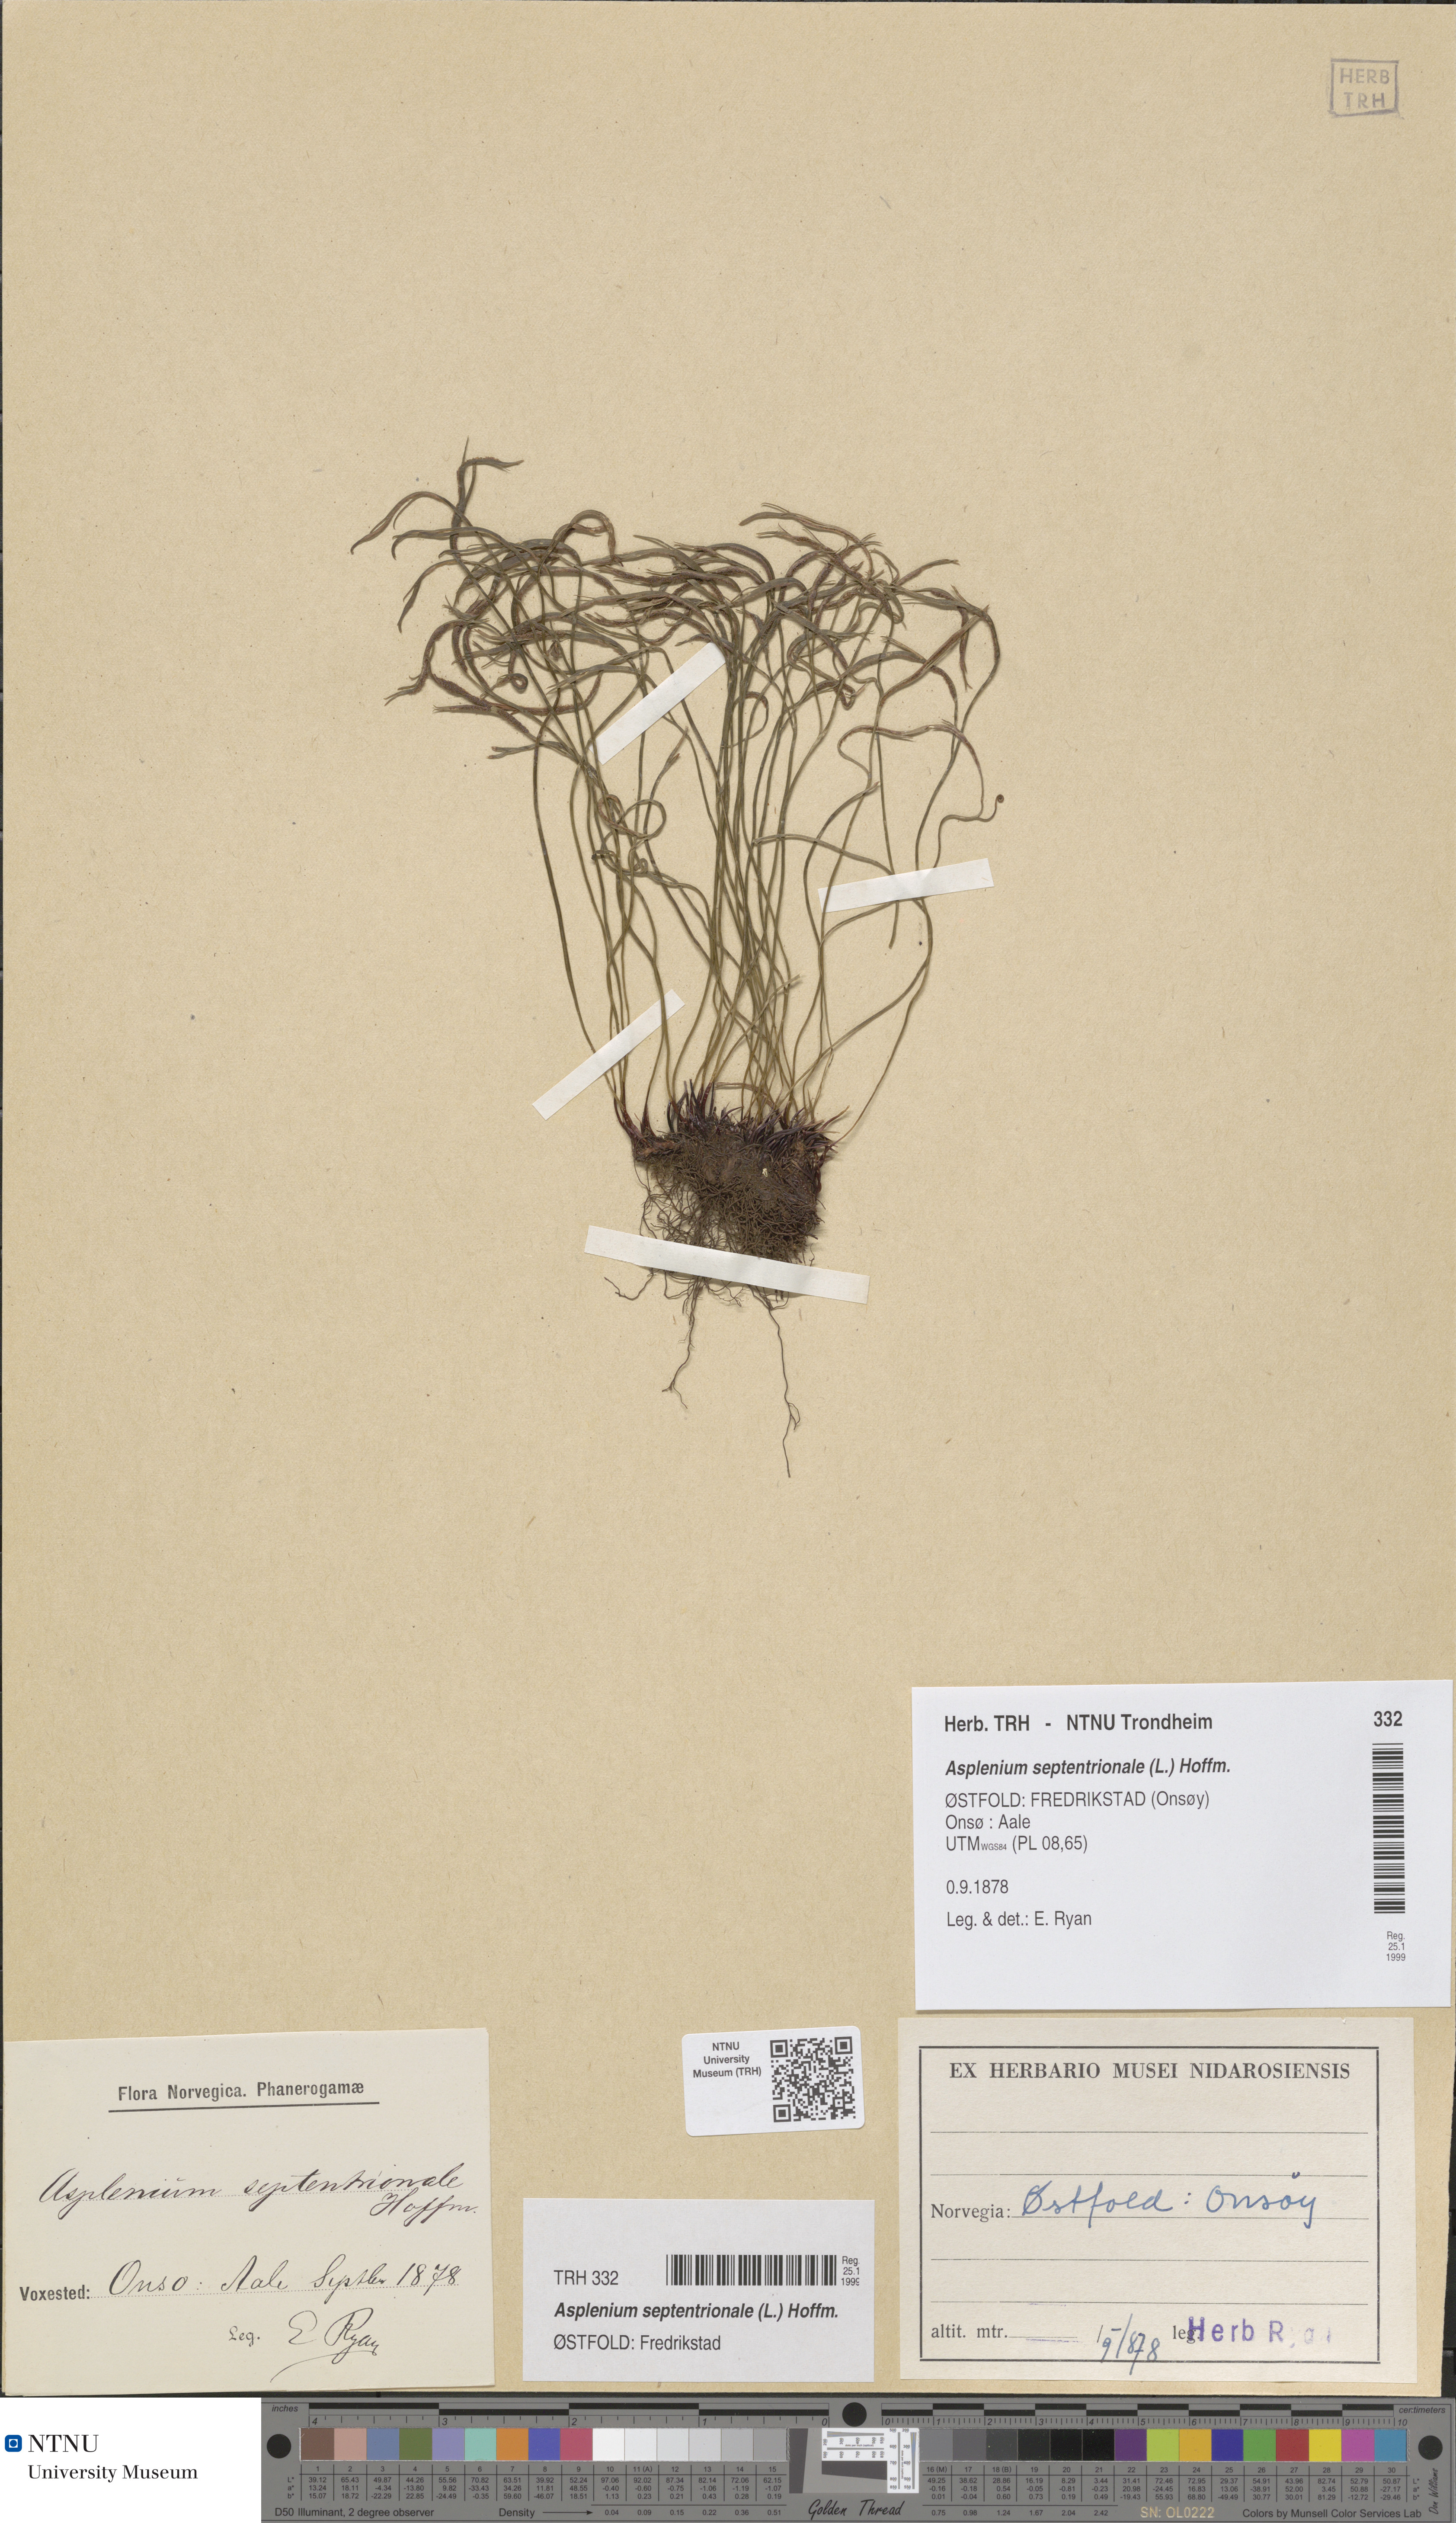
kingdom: Plantae
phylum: Tracheophyta
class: Polypodiopsida
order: Polypodiales
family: Aspleniaceae
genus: Asplenium
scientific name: Asplenium septentrionale
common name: Forked spleenwort
